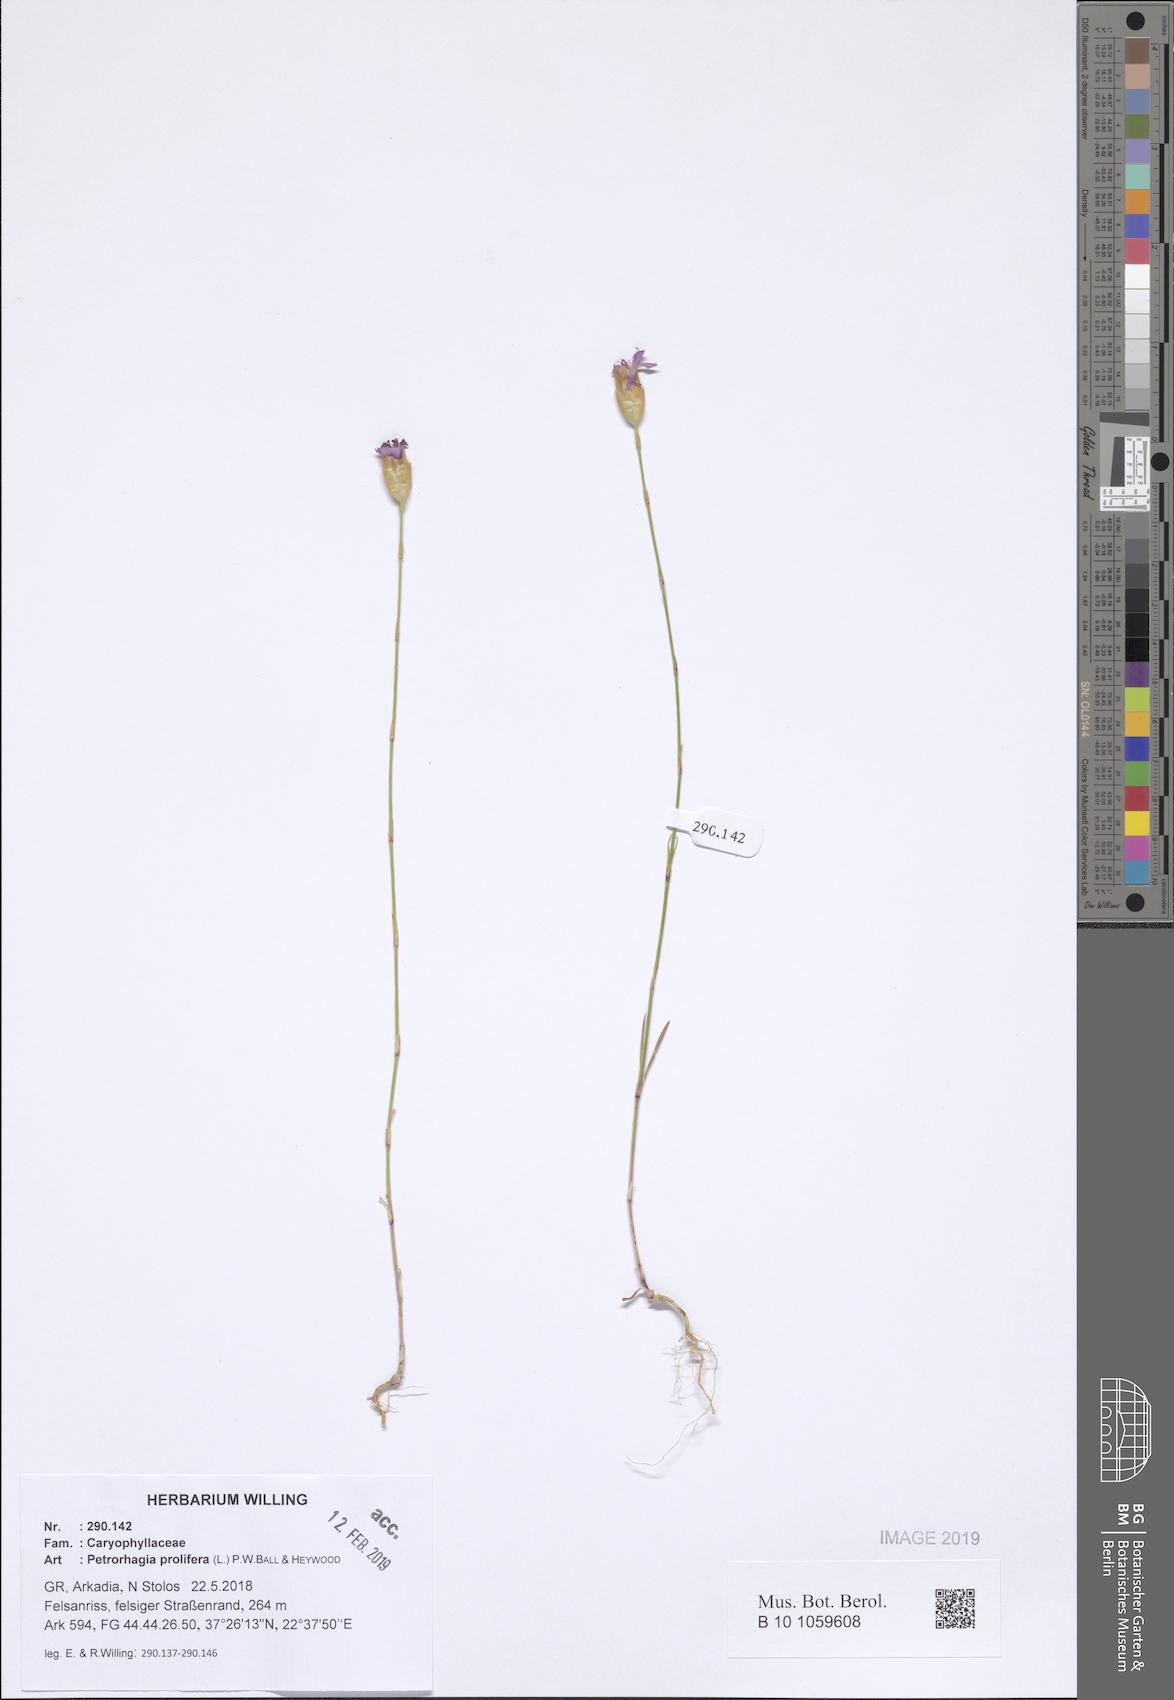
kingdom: Plantae
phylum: Tracheophyta
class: Magnoliopsida
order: Caryophyllales
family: Caryophyllaceae
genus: Petrorhagia
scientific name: Petrorhagia prolifera
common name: Proliferous pink
